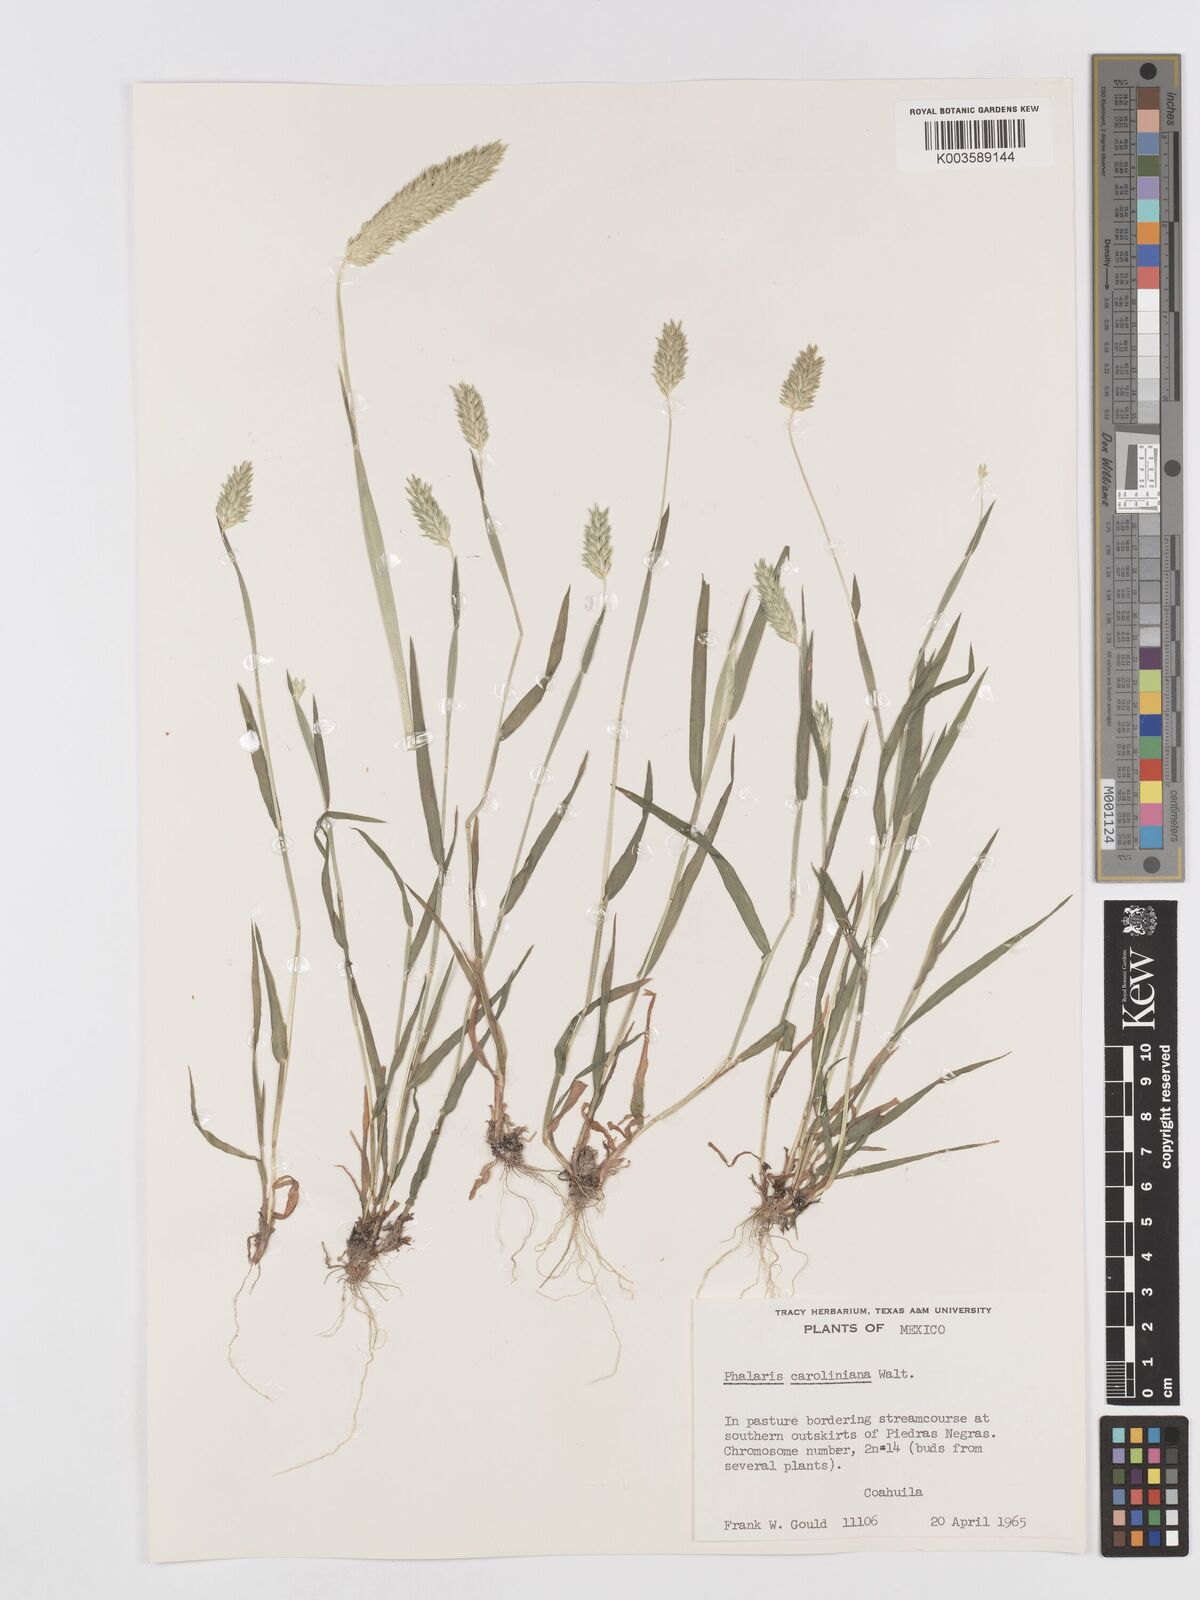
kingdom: Plantae
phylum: Tracheophyta
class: Liliopsida
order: Poales
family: Poaceae
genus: Phalaris
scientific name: Phalaris caroliniana
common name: May grass
